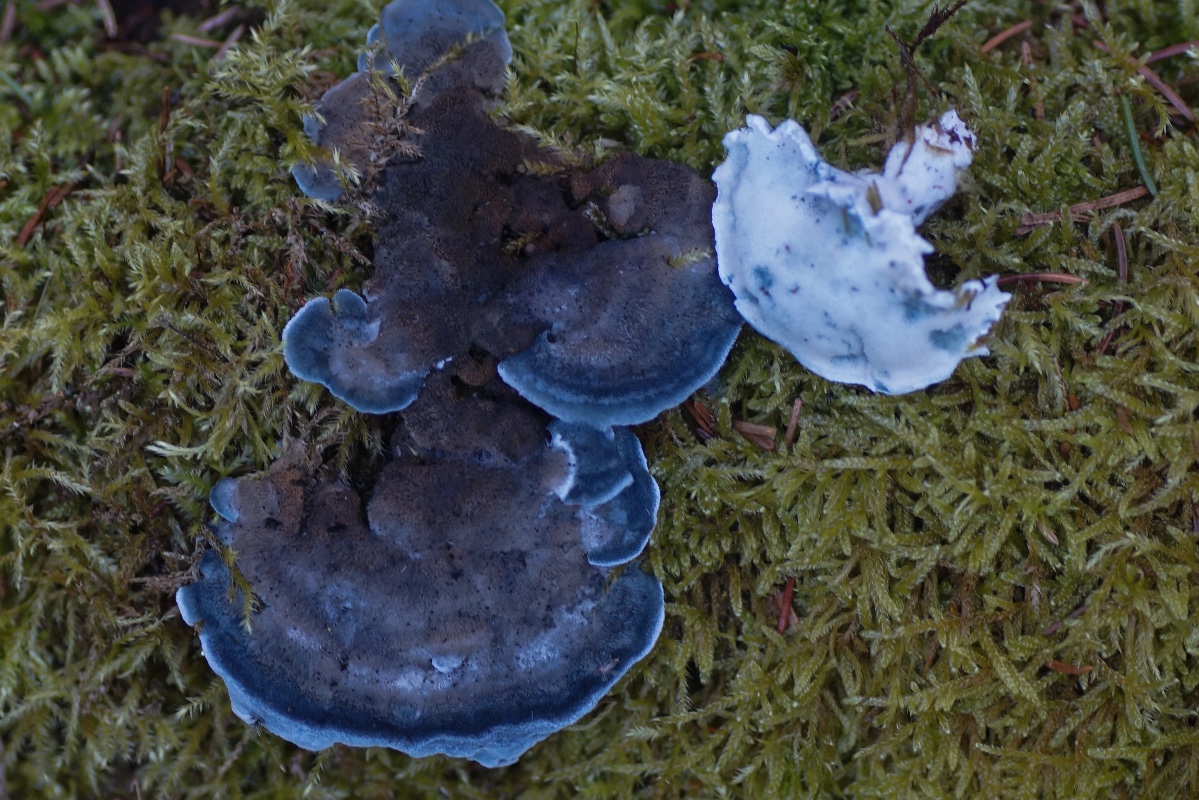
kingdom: Fungi
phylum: Basidiomycota
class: Agaricomycetes
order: Polyporales
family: Polyporaceae
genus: Cyanosporus
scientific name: Cyanosporus caesius
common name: blålig kødporesvamp
